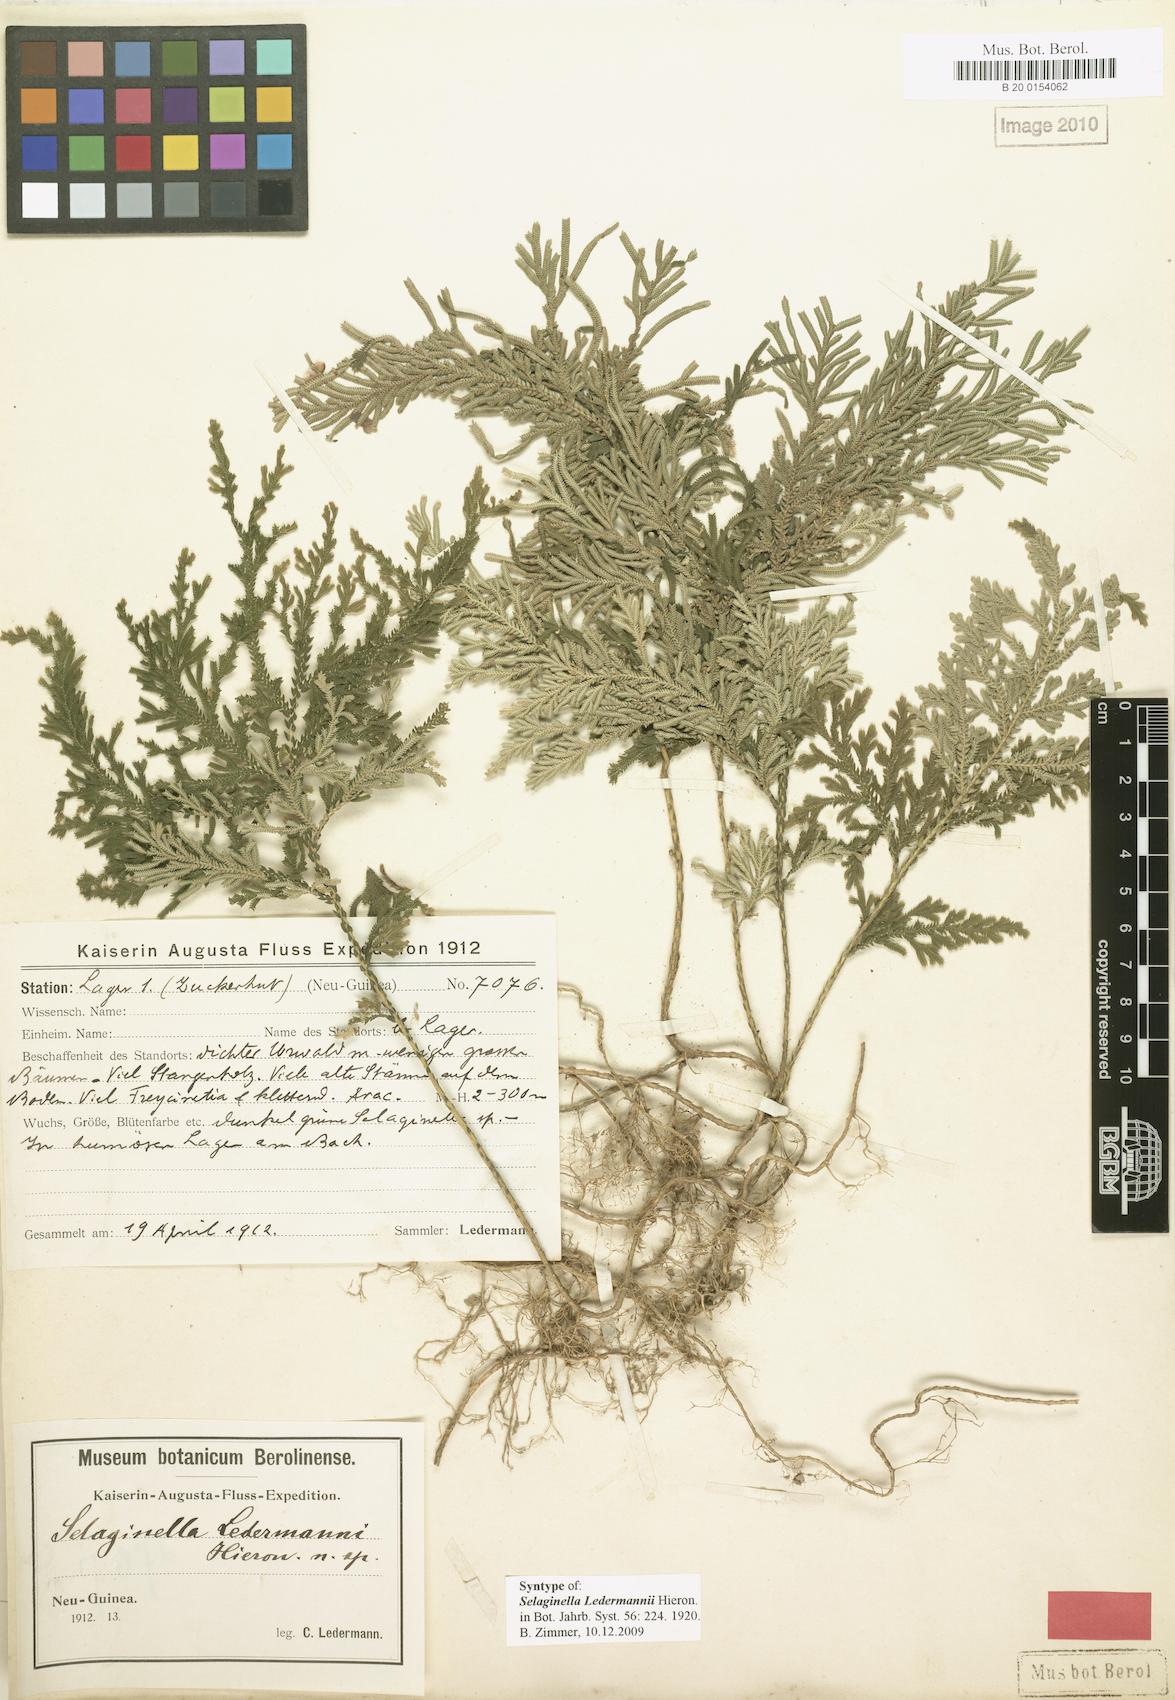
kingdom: Plantae
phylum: Tracheophyta
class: Lycopodiopsida
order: Selaginellales
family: Selaginellaceae
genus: Selaginella
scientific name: Selaginella ledermannii
